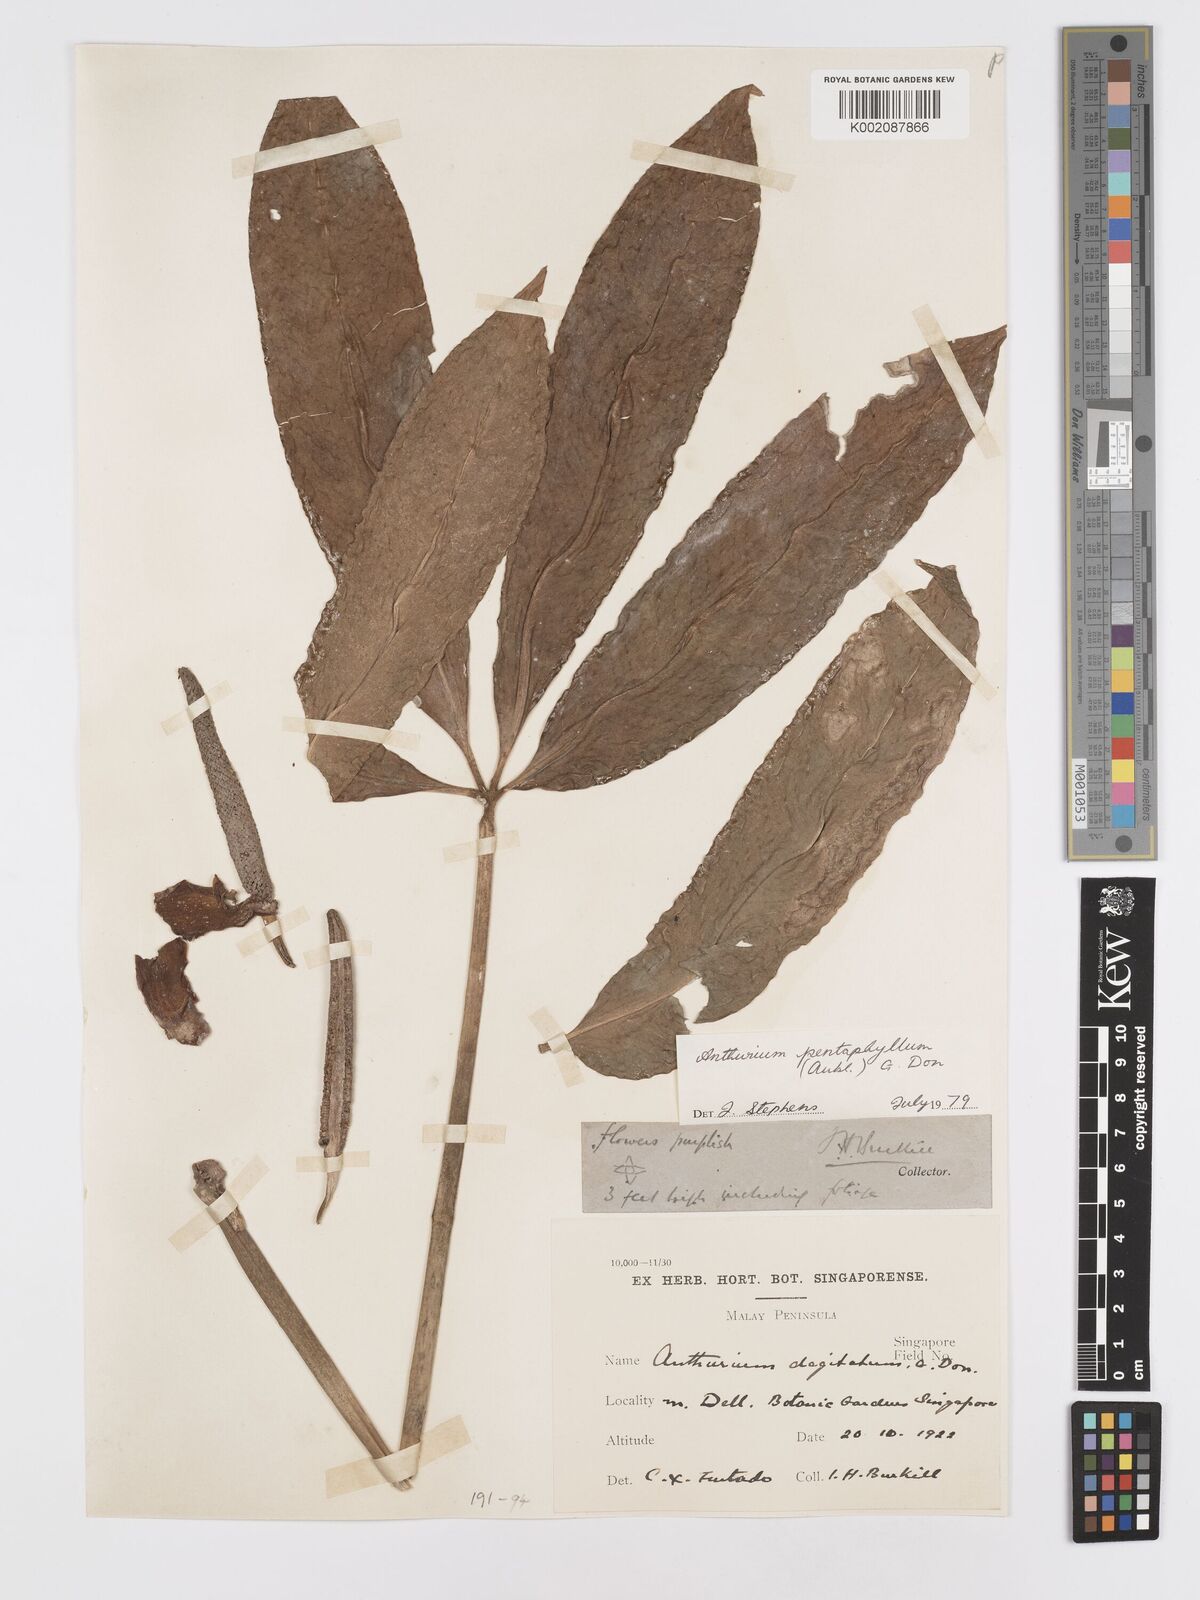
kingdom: Plantae
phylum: Tracheophyta
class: Liliopsida
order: Alismatales
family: Araceae
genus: Anthurium
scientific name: Anthurium pentaphyllum
